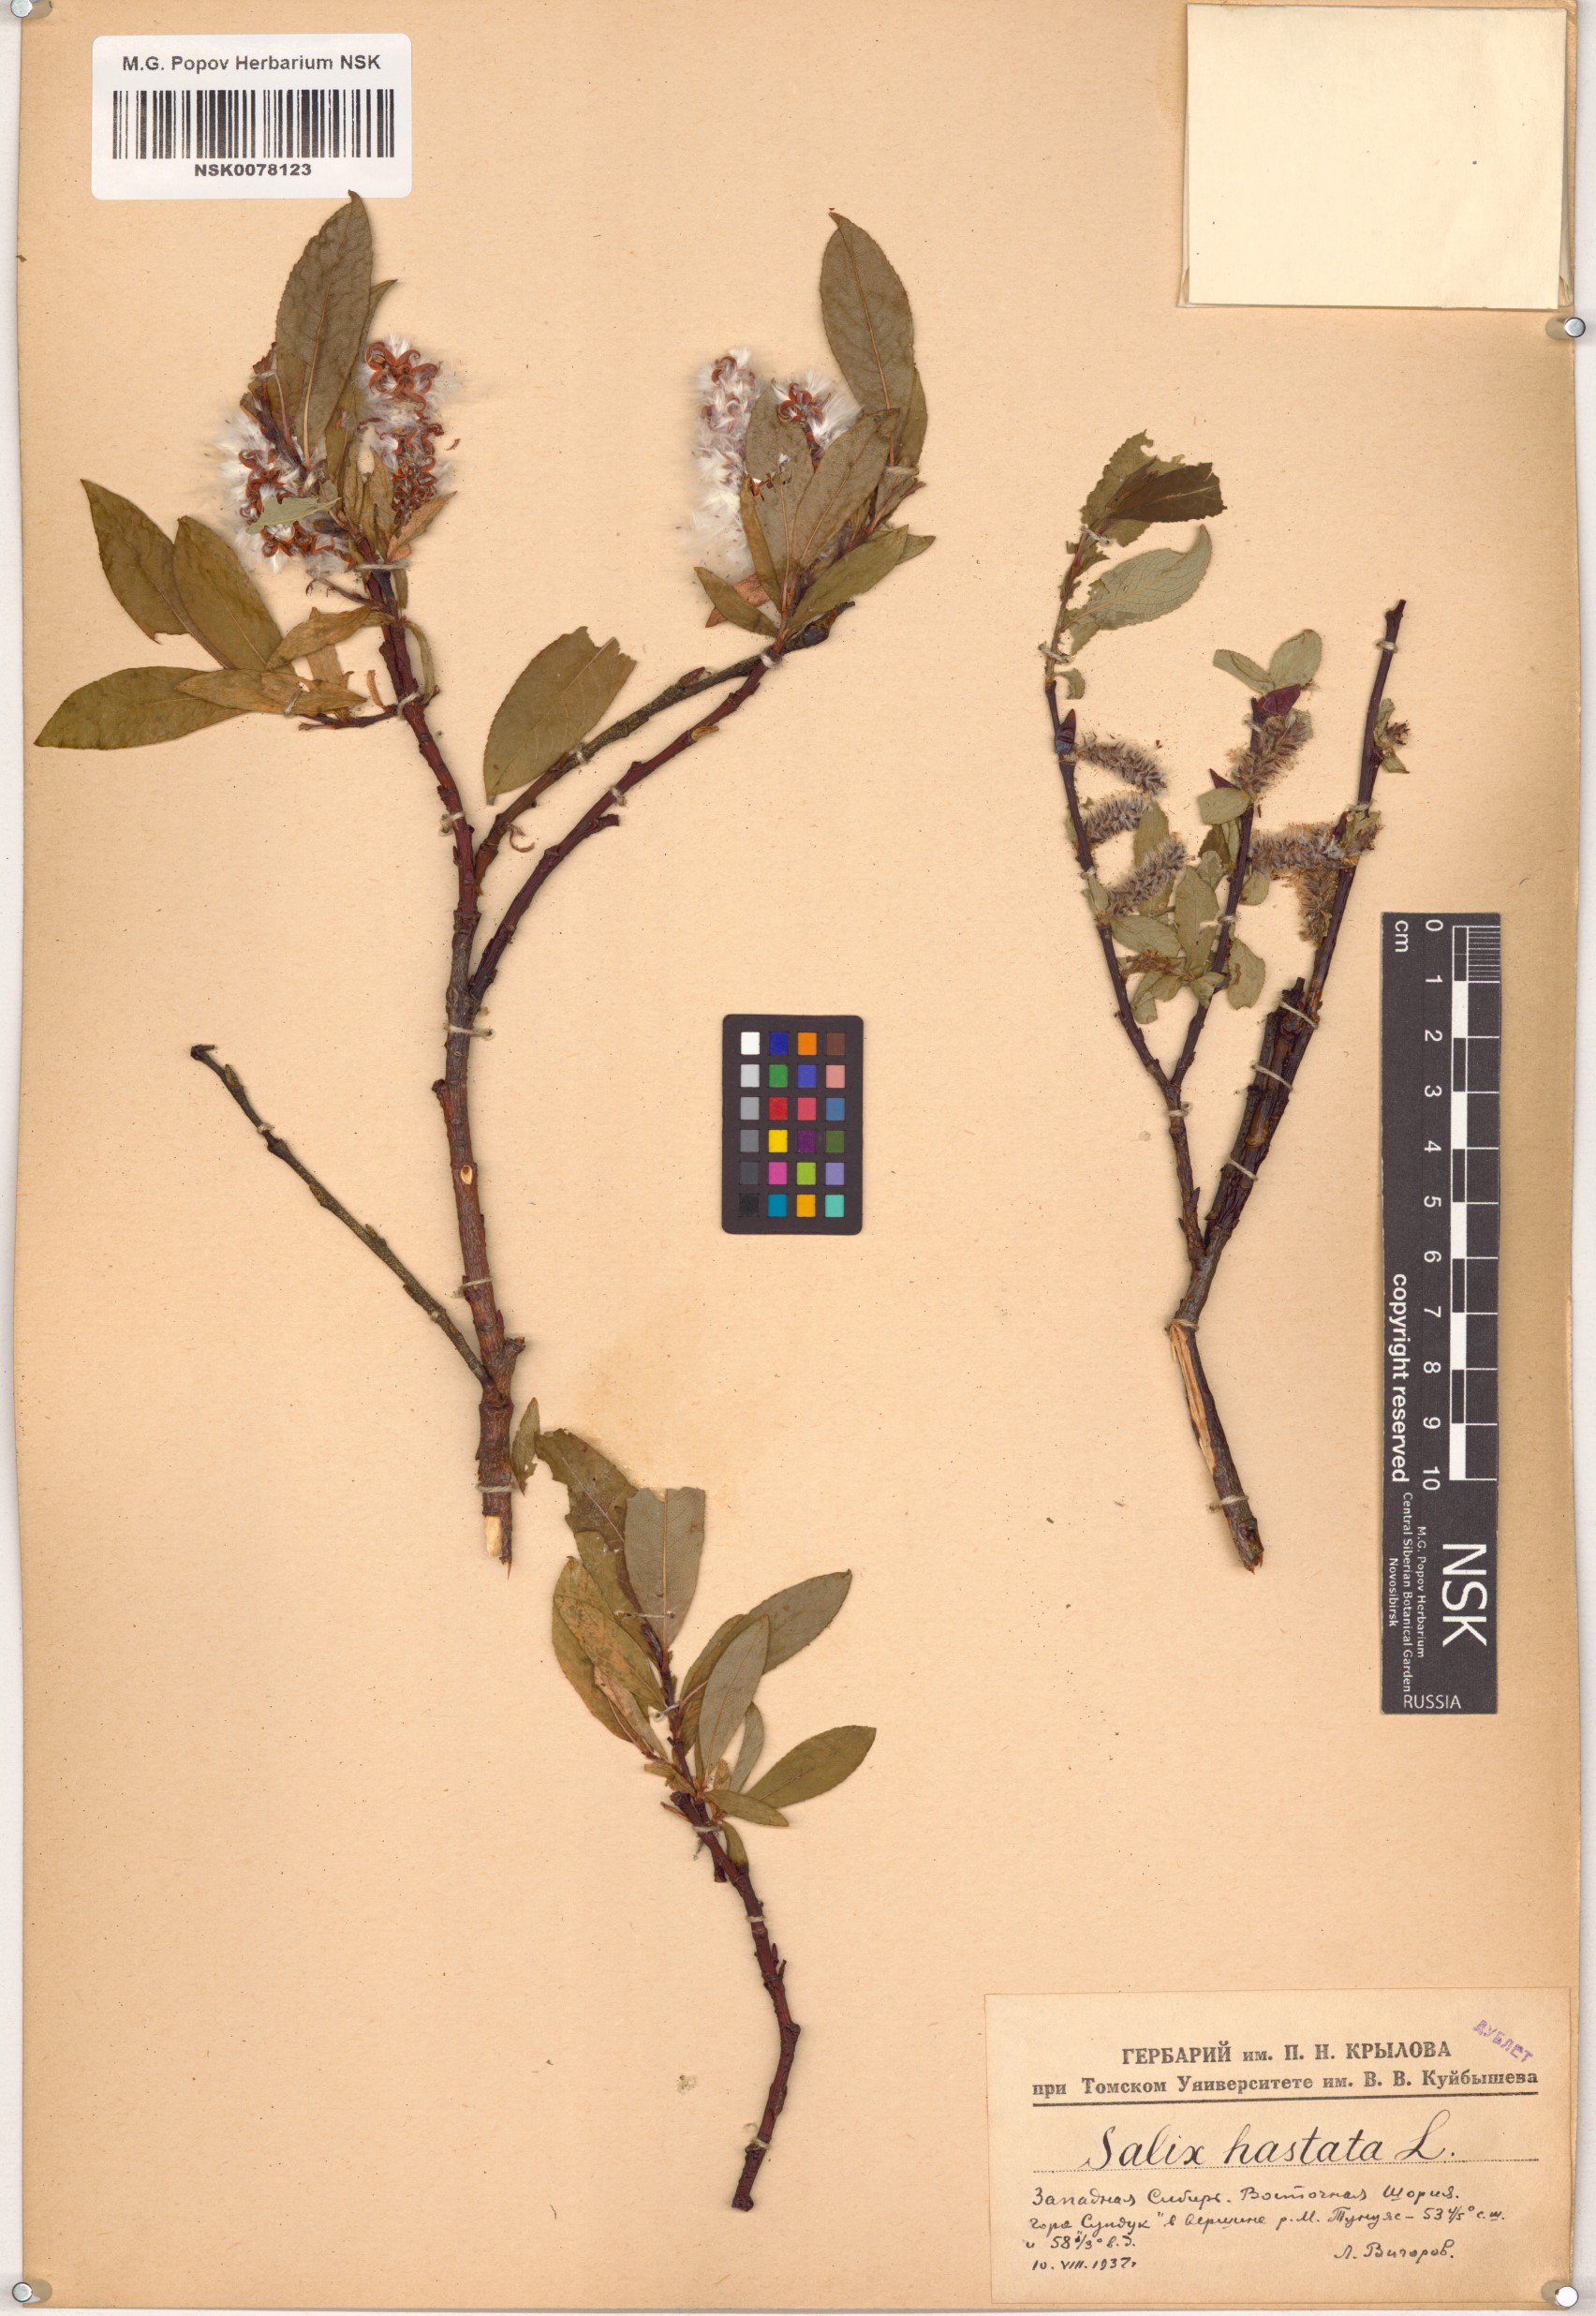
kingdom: Plantae
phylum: Tracheophyta
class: Magnoliopsida
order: Malpighiales
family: Salicaceae
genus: Salix
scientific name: Salix hastata
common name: Halberd willow
